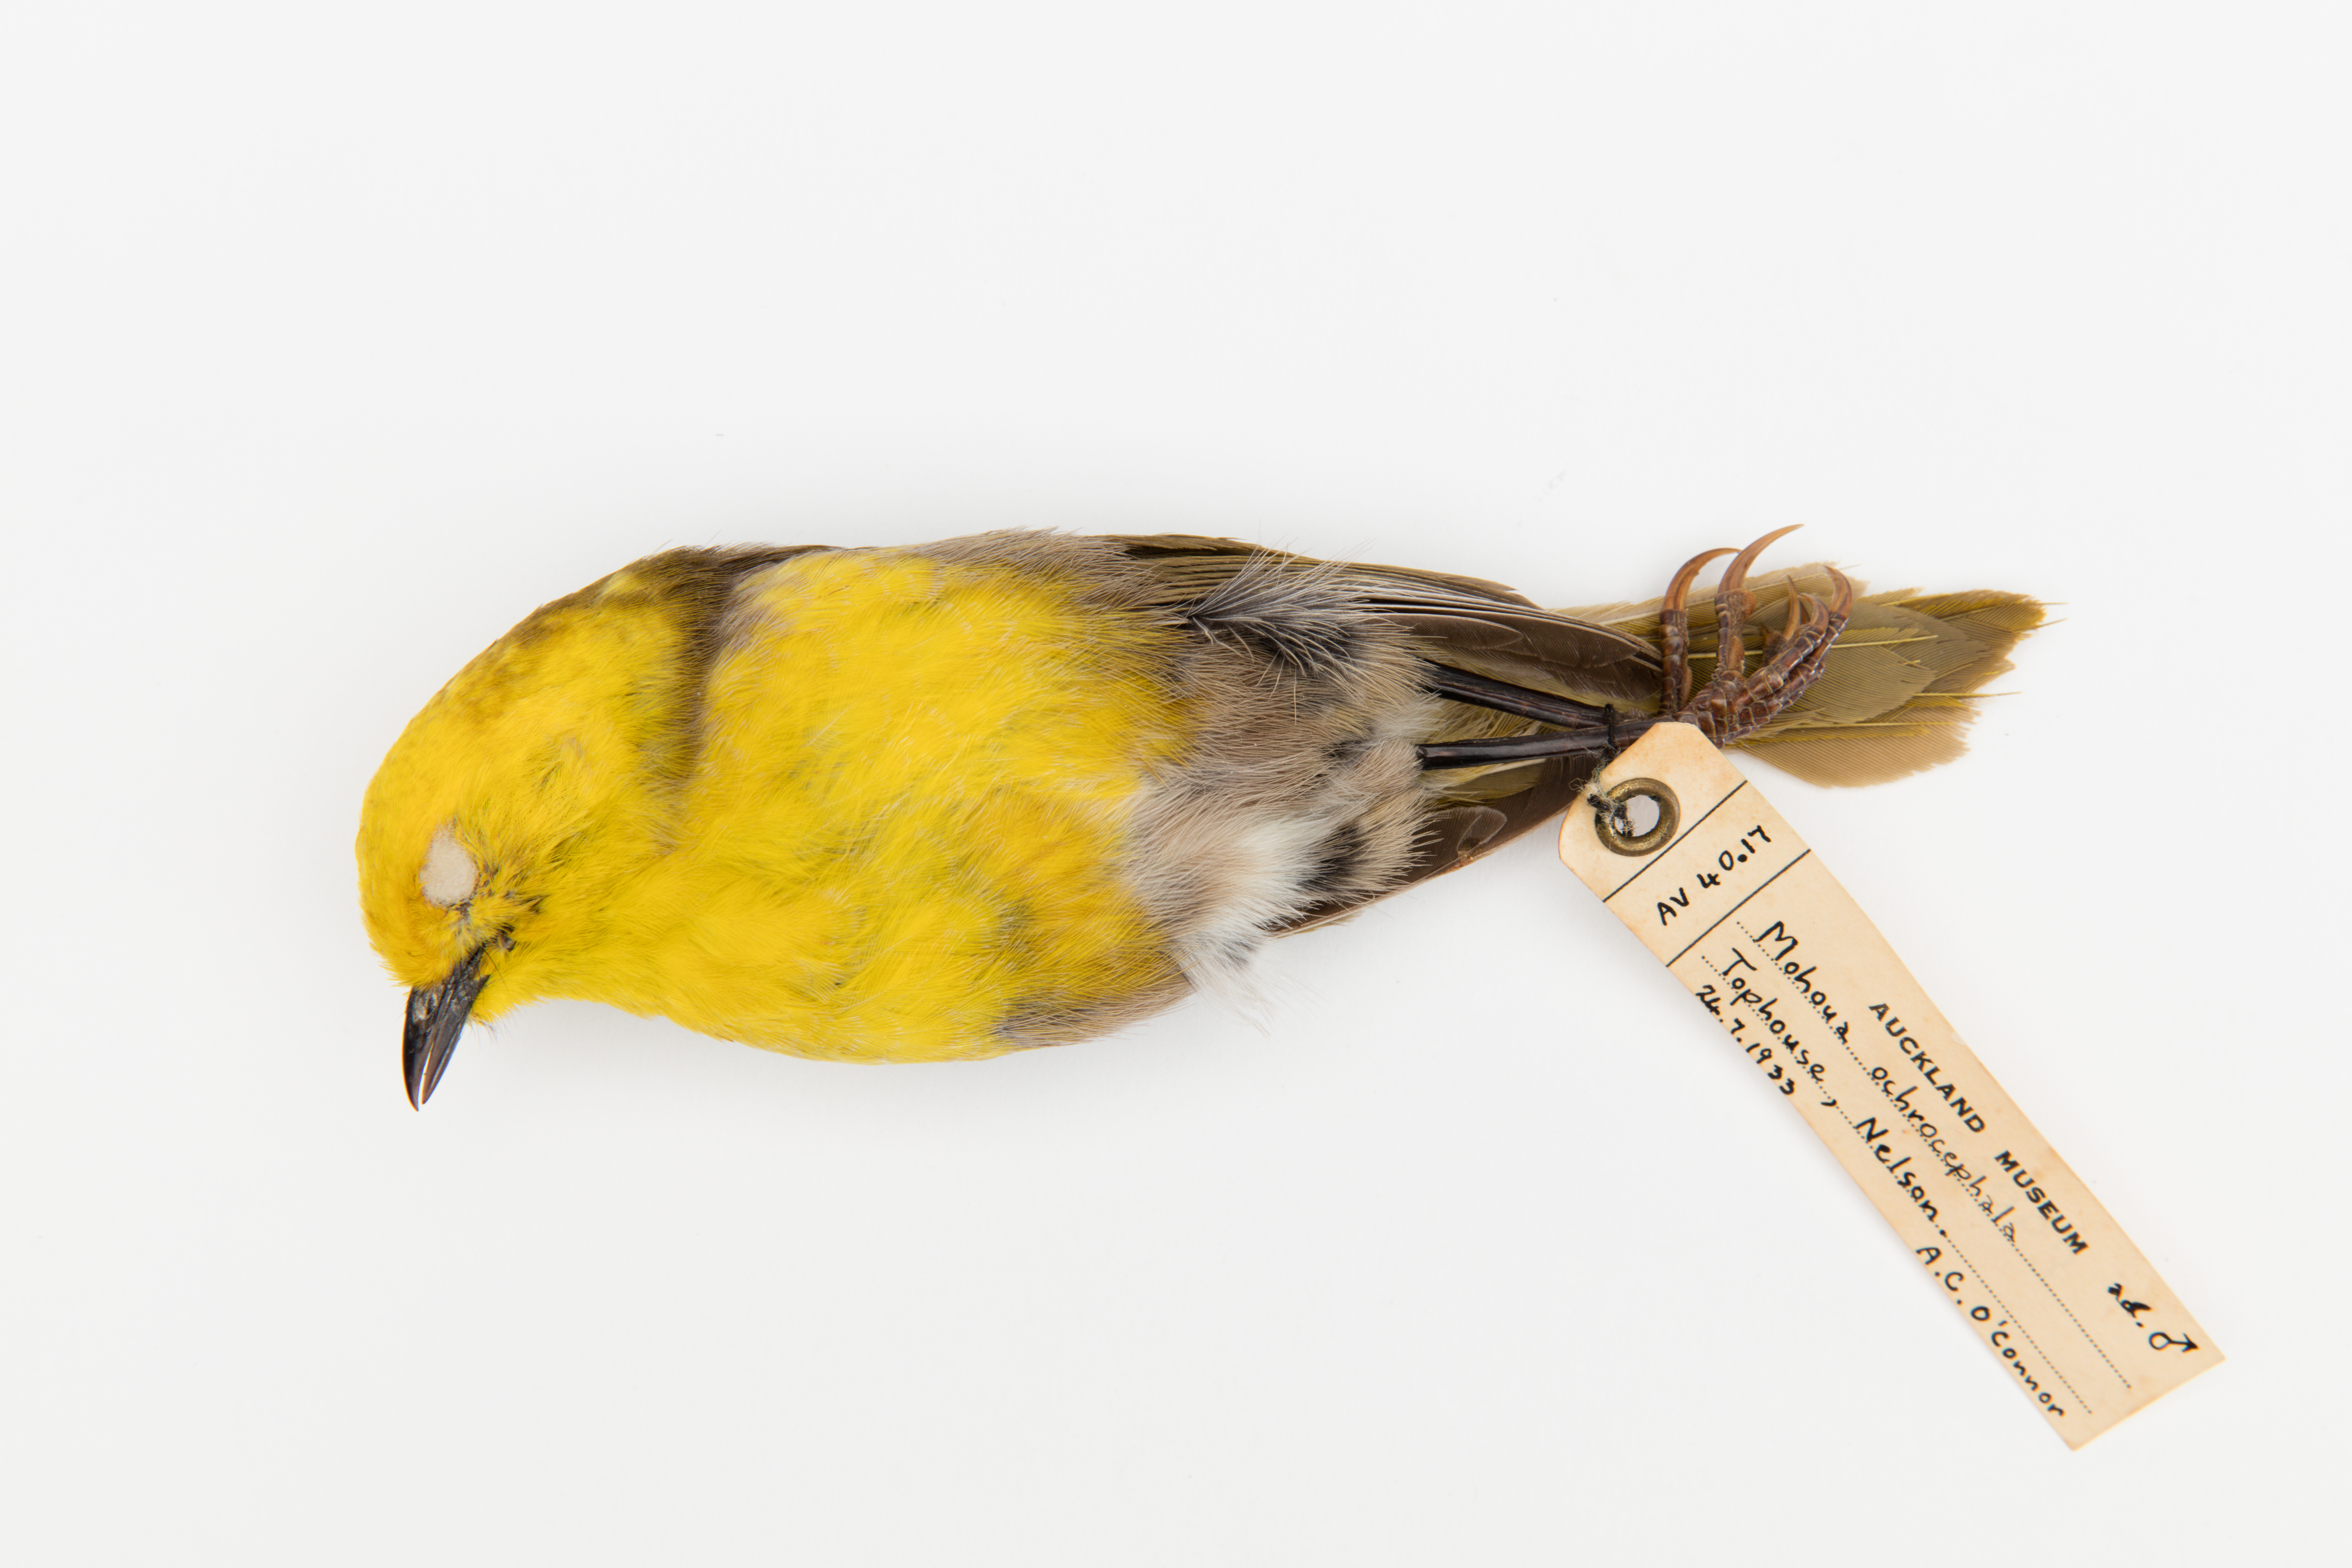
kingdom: Animalia
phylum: Chordata
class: Aves
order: Passeriformes
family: Acanthizidae
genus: Mohoua
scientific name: Mohoua ochrocephala
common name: Yellowhead
